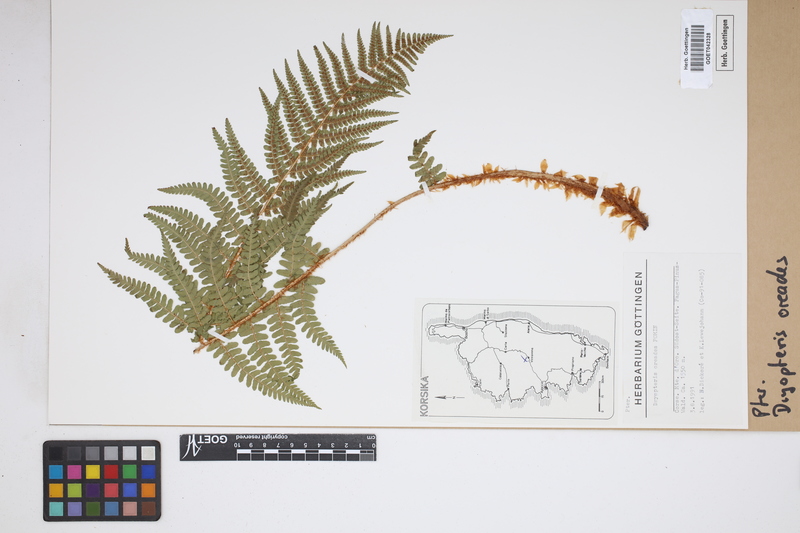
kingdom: Plantae
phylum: Tracheophyta
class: Polypodiopsida
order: Polypodiales
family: Dryopteridaceae
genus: Dryopteris
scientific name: Dryopteris oreades
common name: Mountain male fern
